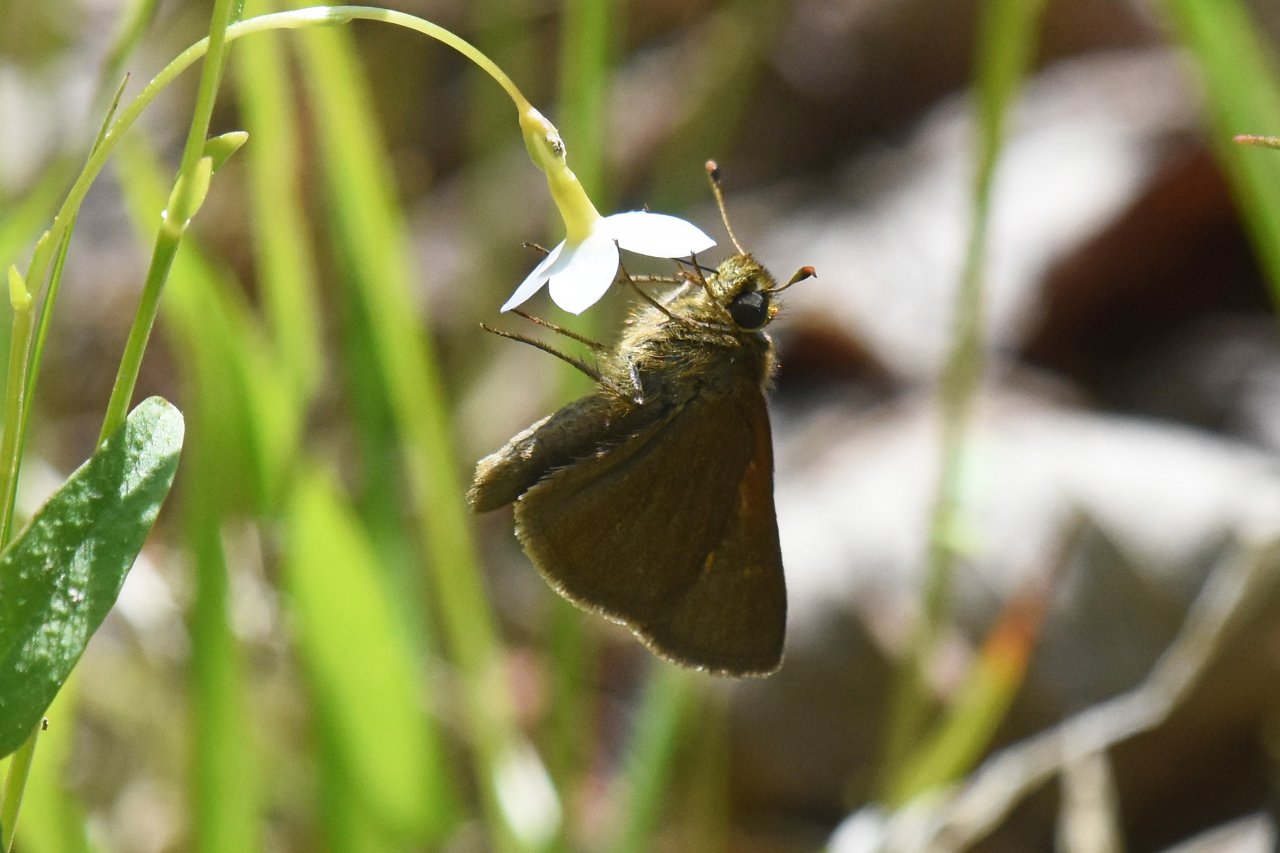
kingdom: Animalia
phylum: Arthropoda
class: Insecta
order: Lepidoptera
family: Hesperiidae
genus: Euphyes
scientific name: Euphyes vestris
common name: Dun Skipper
